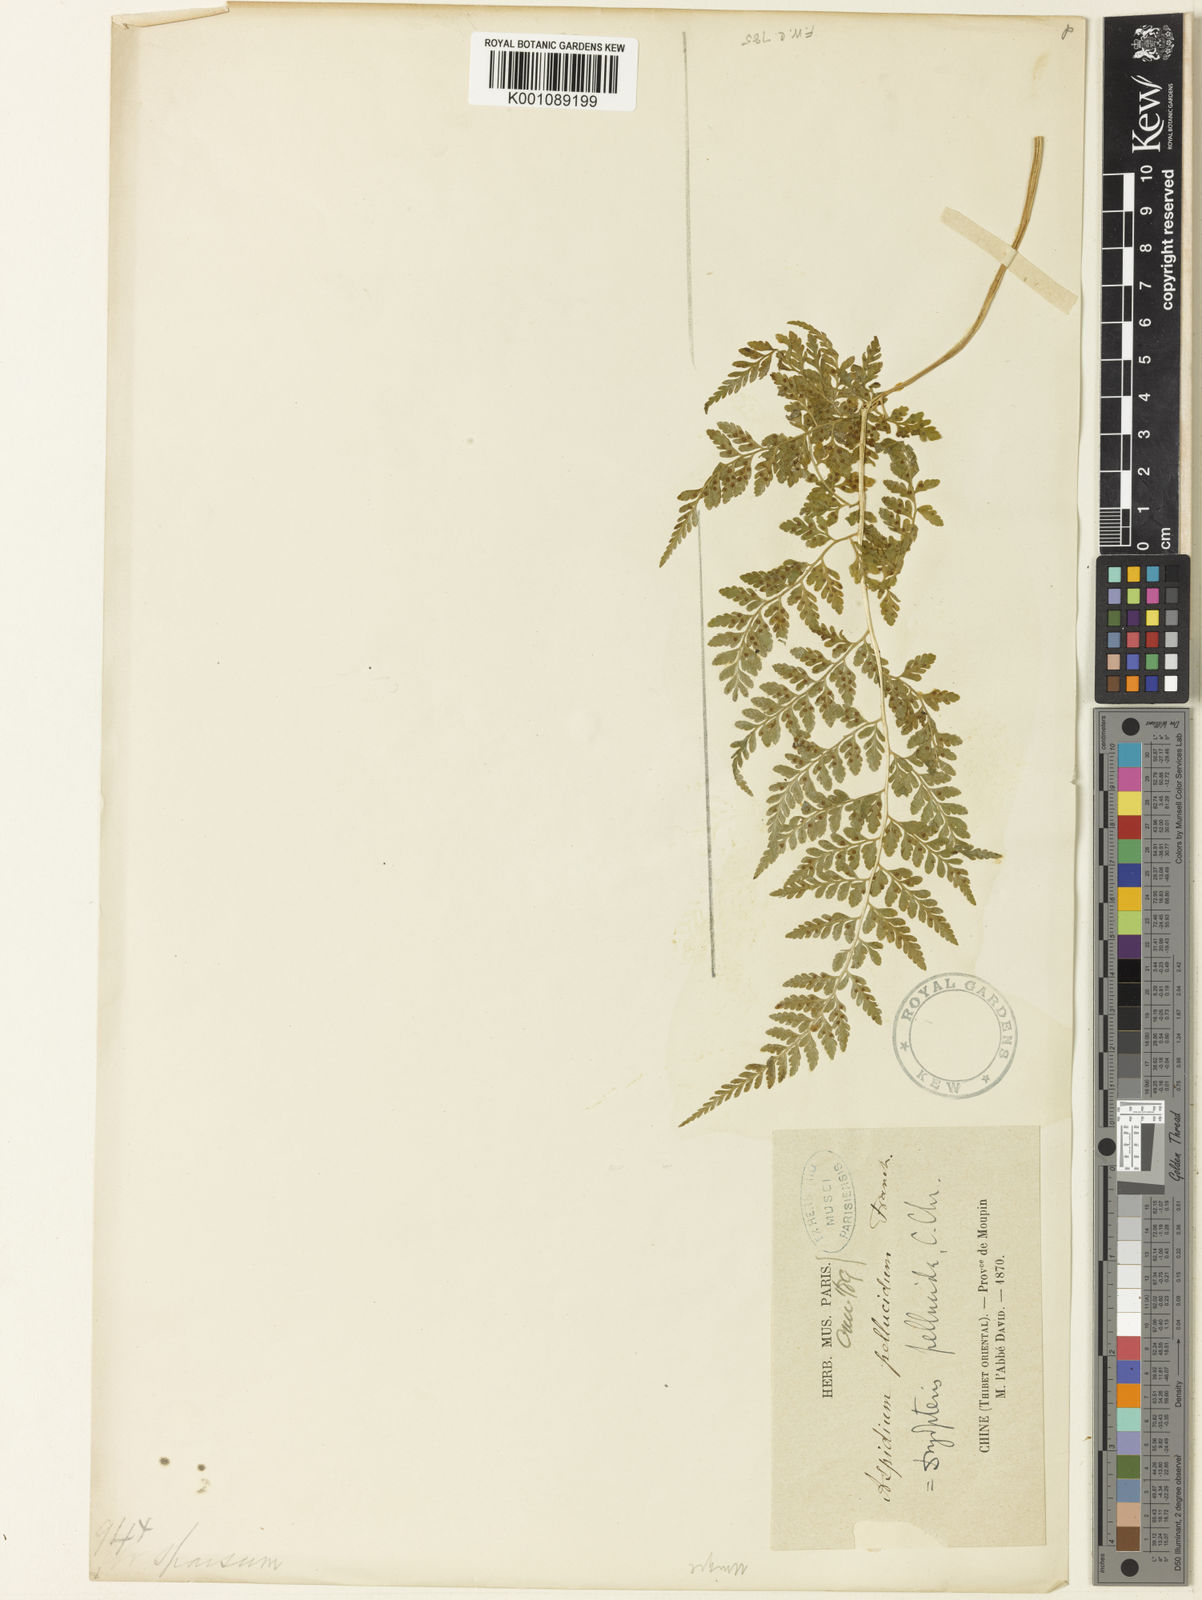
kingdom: Plantae
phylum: Tracheophyta
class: Polypodiopsida
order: Polypodiales
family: Cystopteridaceae
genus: Cystopteris
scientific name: Cystopteris pellucida
